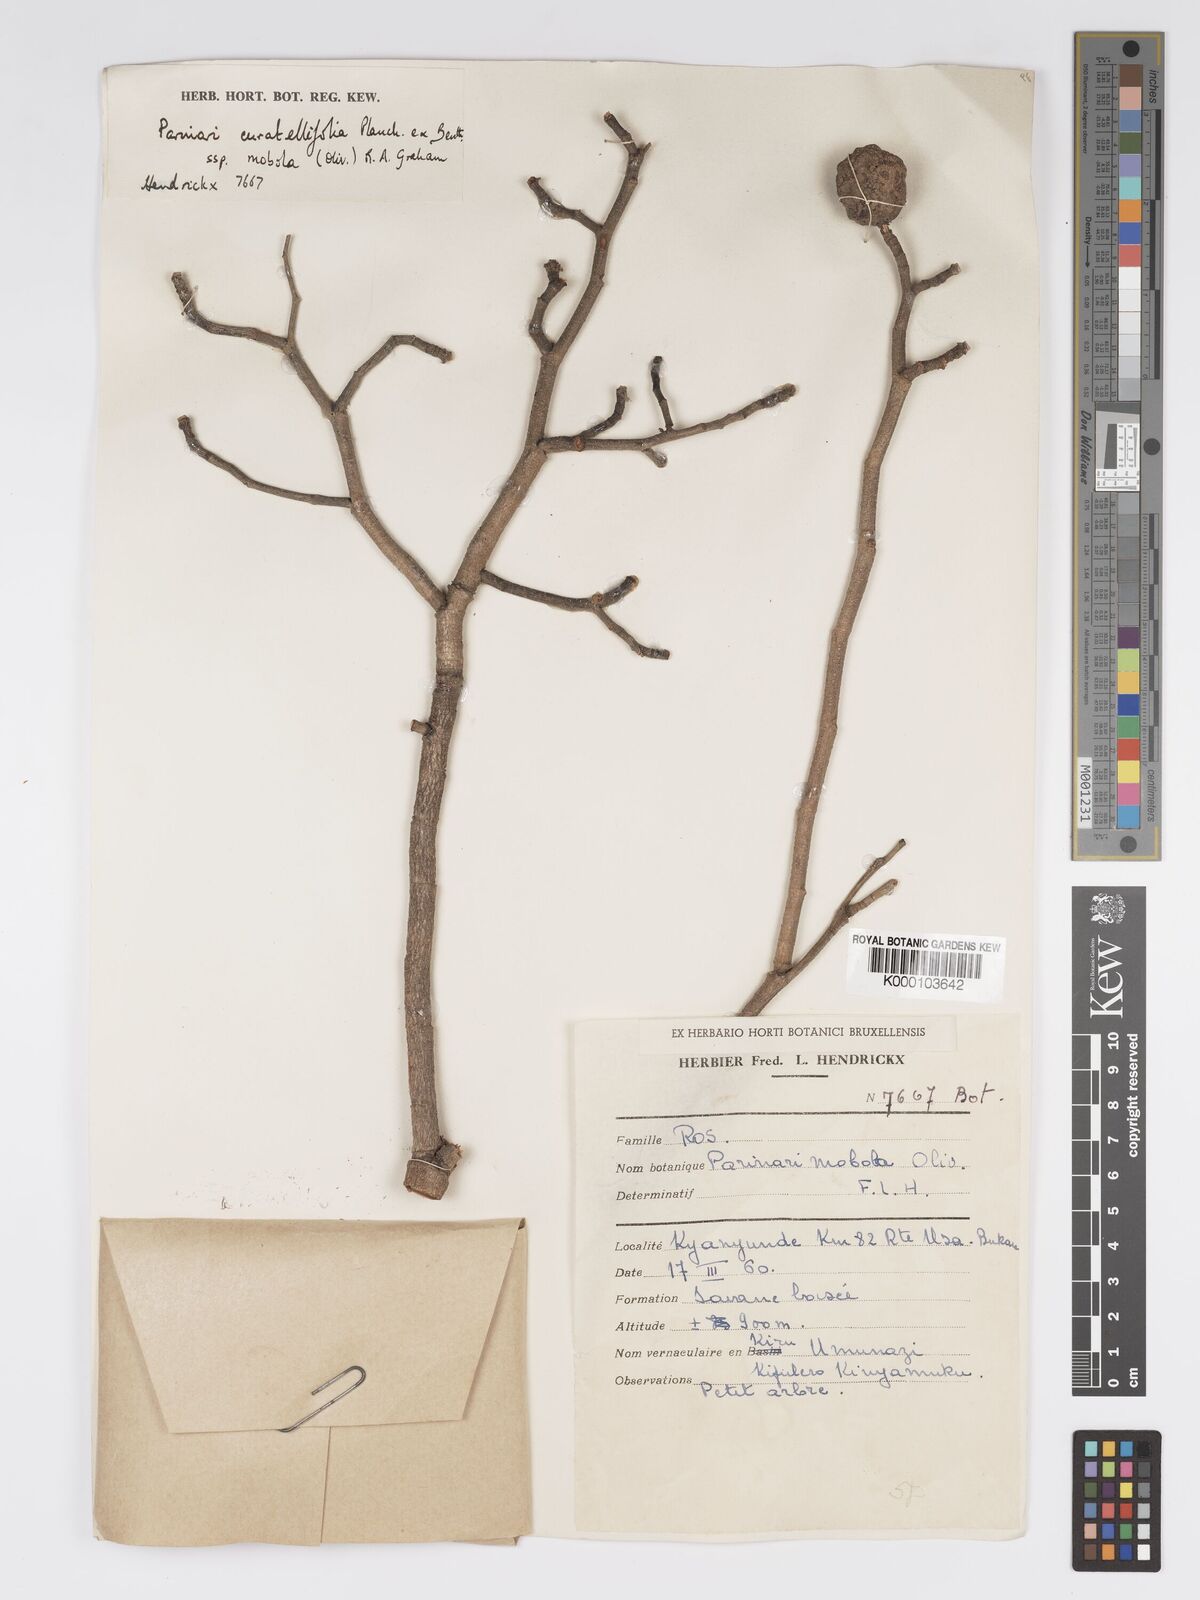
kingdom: Plantae
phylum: Tracheophyta
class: Magnoliopsida
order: Malpighiales
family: Chrysobalanaceae
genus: Parinari
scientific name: Parinari curatellifolia
